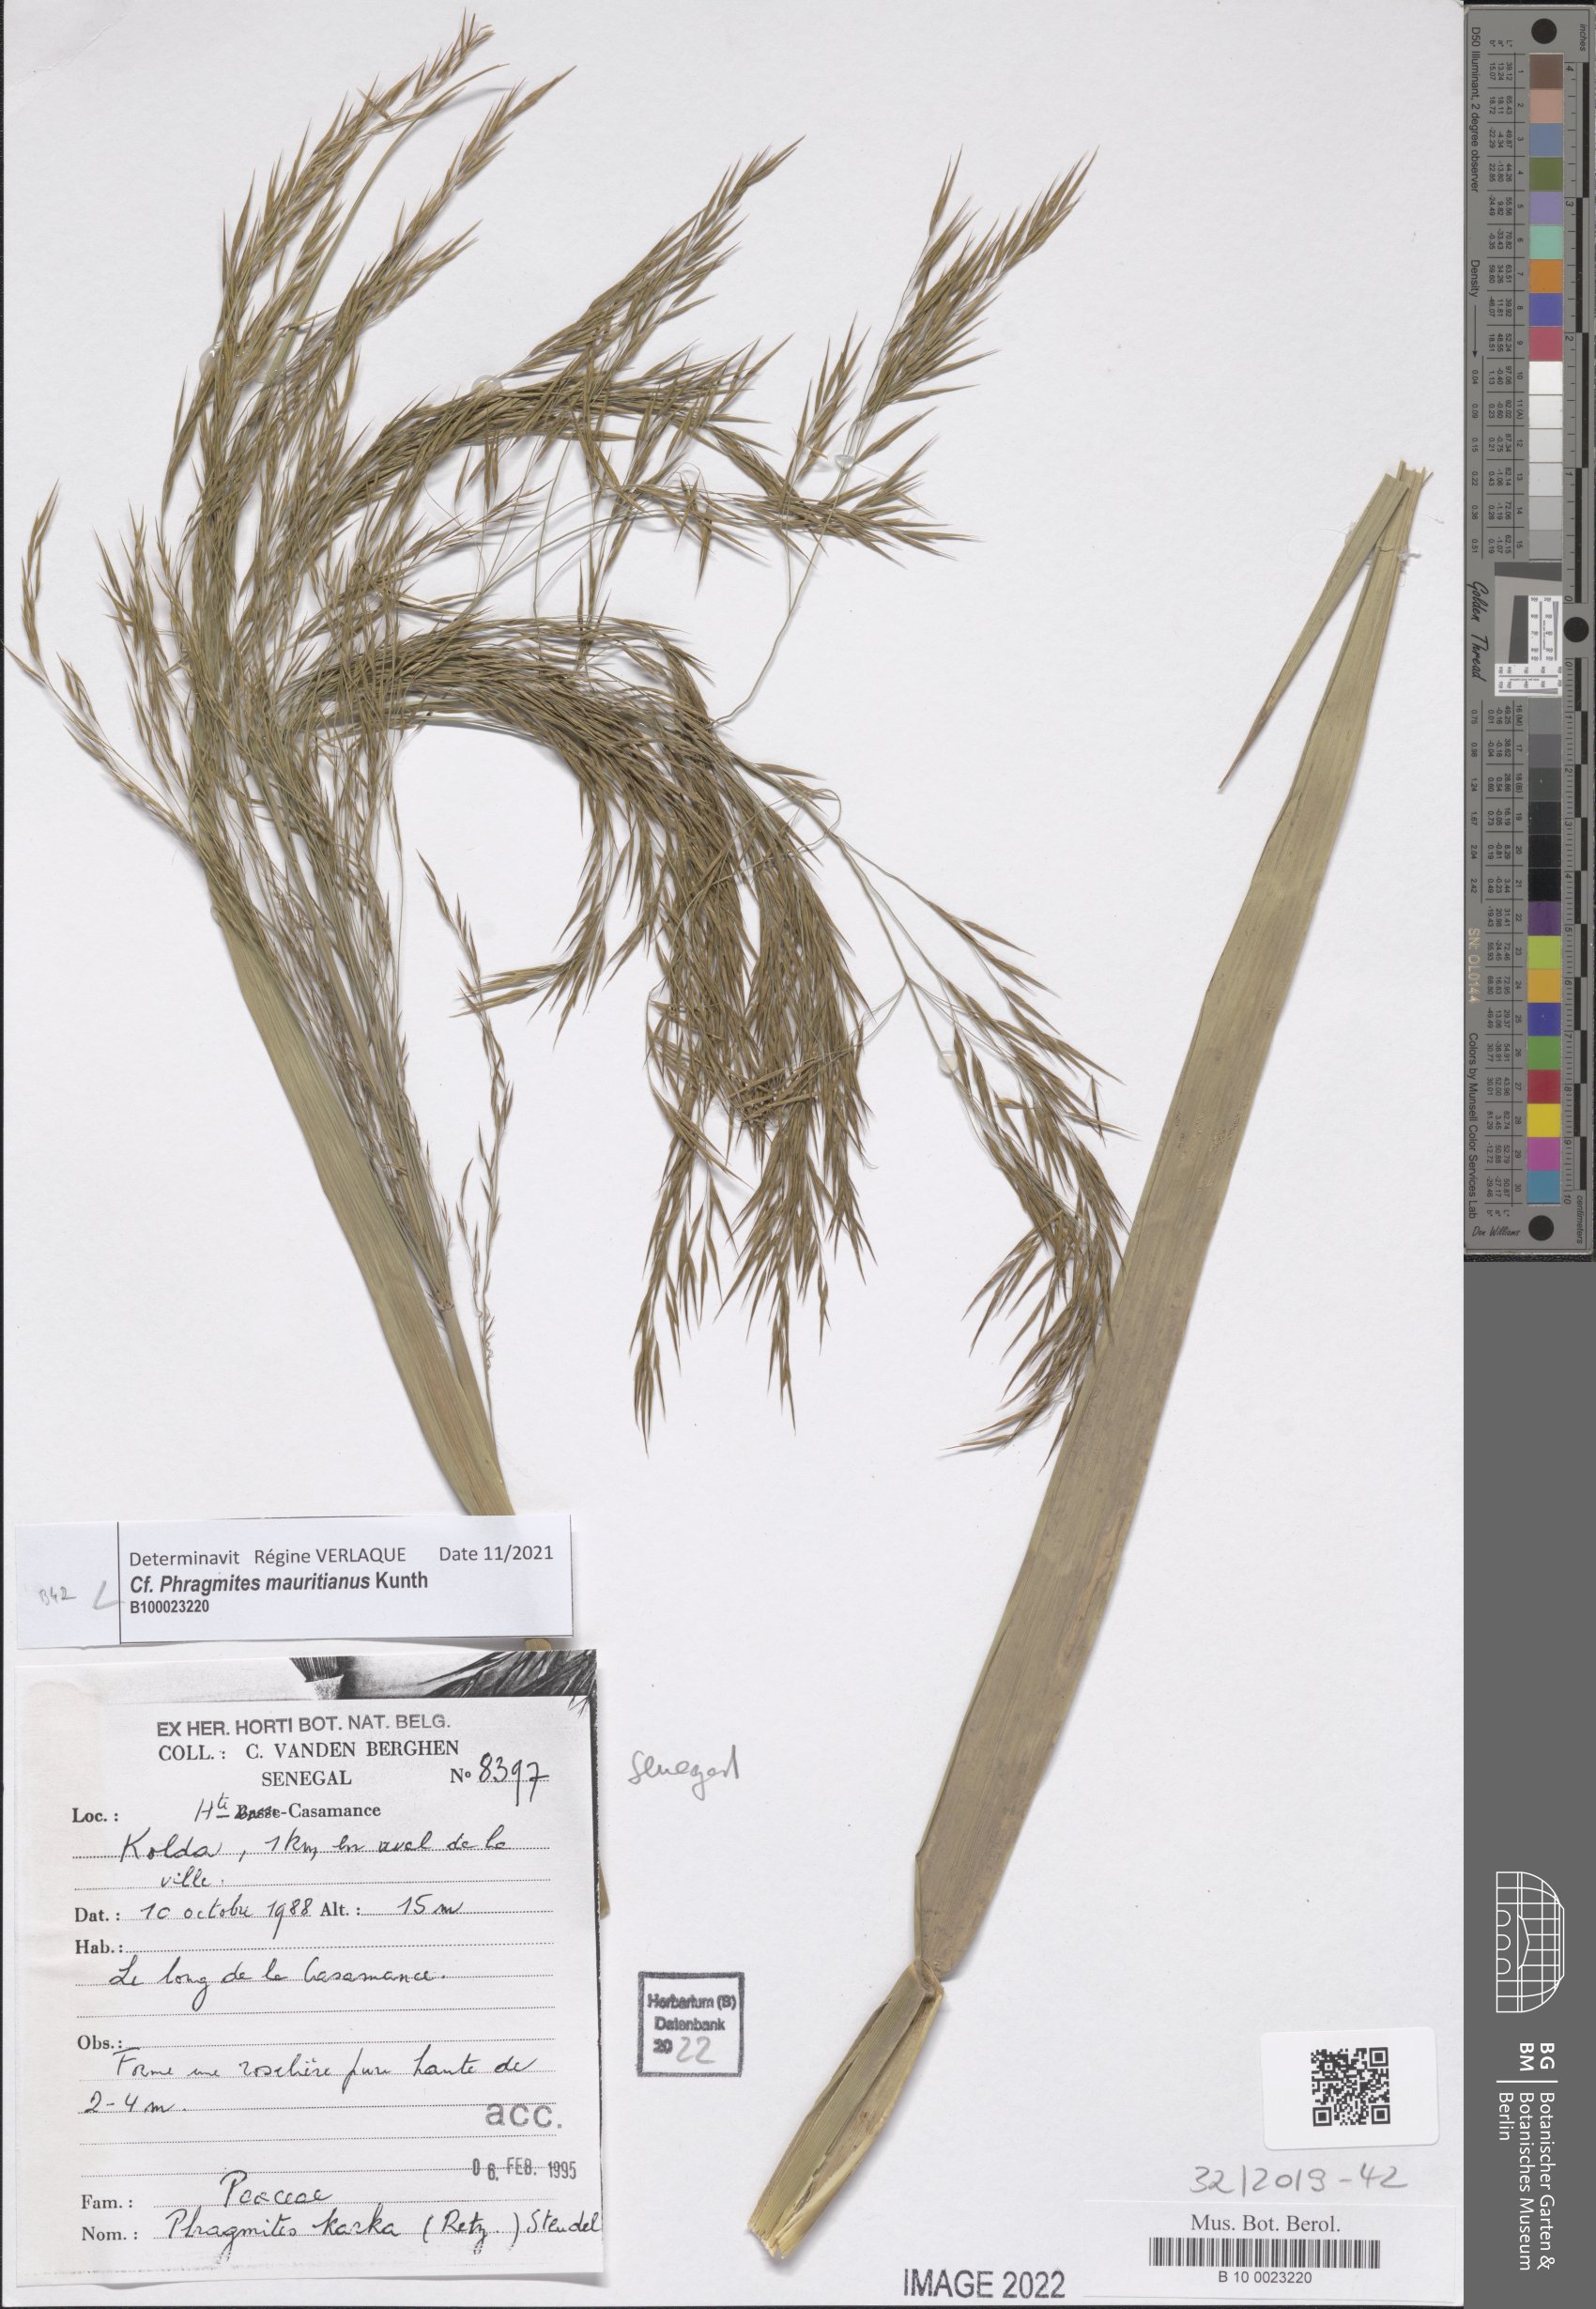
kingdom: Plantae
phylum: Tracheophyta
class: Liliopsida
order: Poales
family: Poaceae
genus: Phragmites
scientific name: Phragmites karka
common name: Tropical reed
